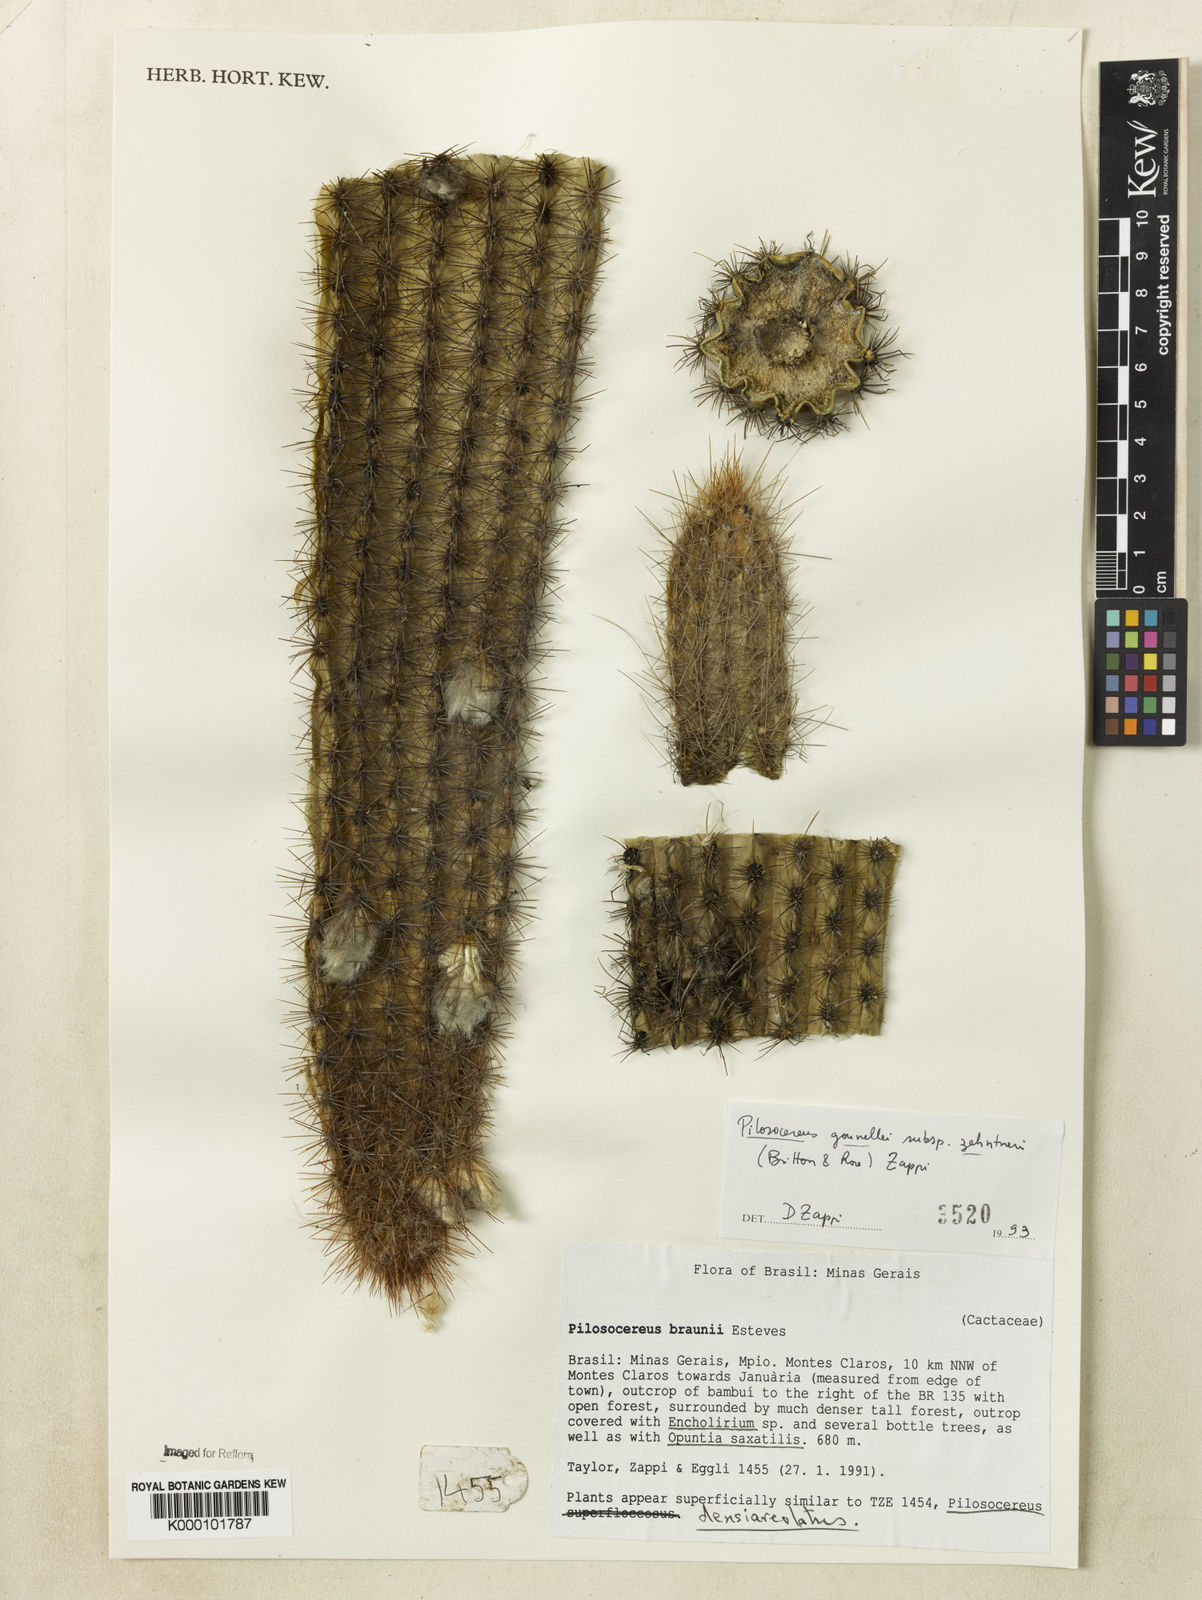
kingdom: Plantae
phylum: Tracheophyta
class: Magnoliopsida
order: Caryophyllales
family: Cactaceae
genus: Xiquexique
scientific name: Xiquexique gounellei
